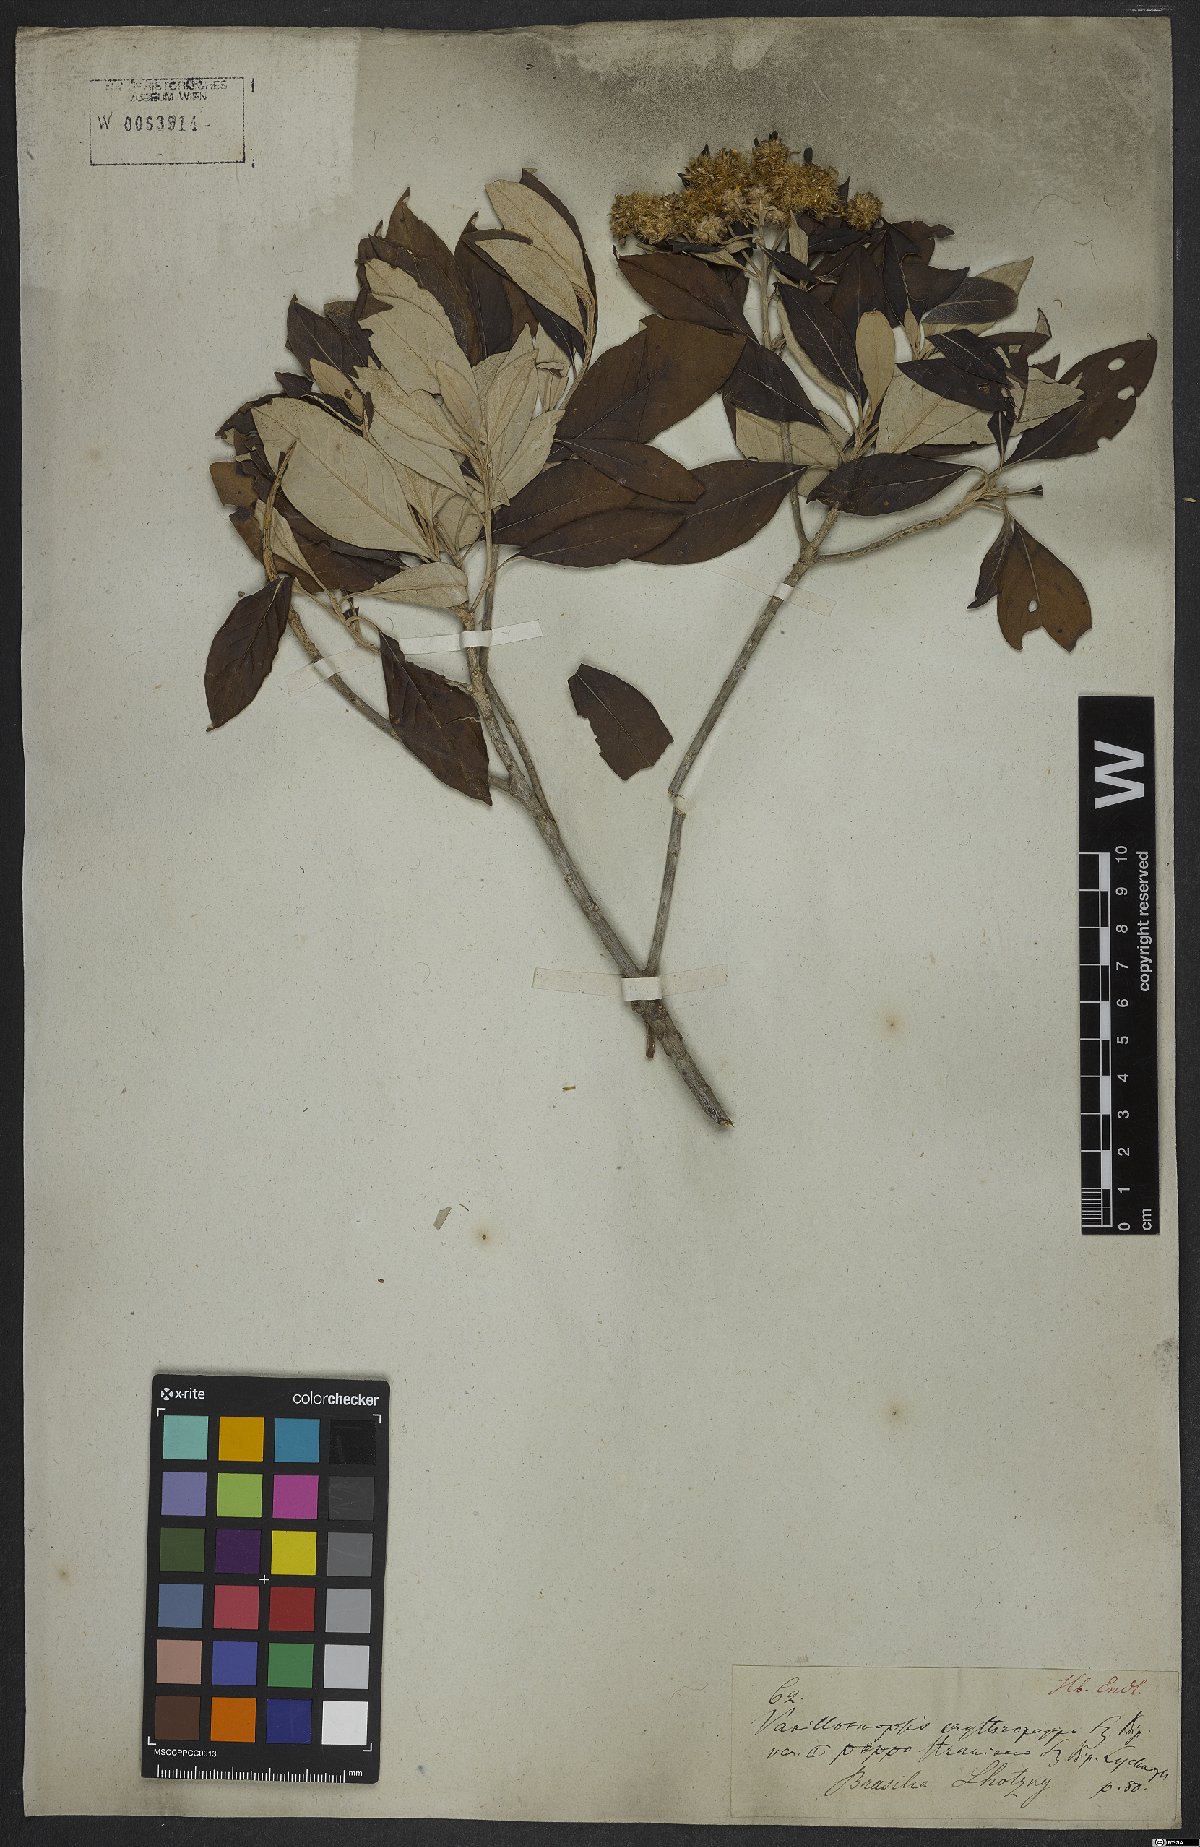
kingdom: Plantae
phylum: Tracheophyta
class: Magnoliopsida
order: Asterales
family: Asteraceae
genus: Eremanthus
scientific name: Eremanthus erythropappus
